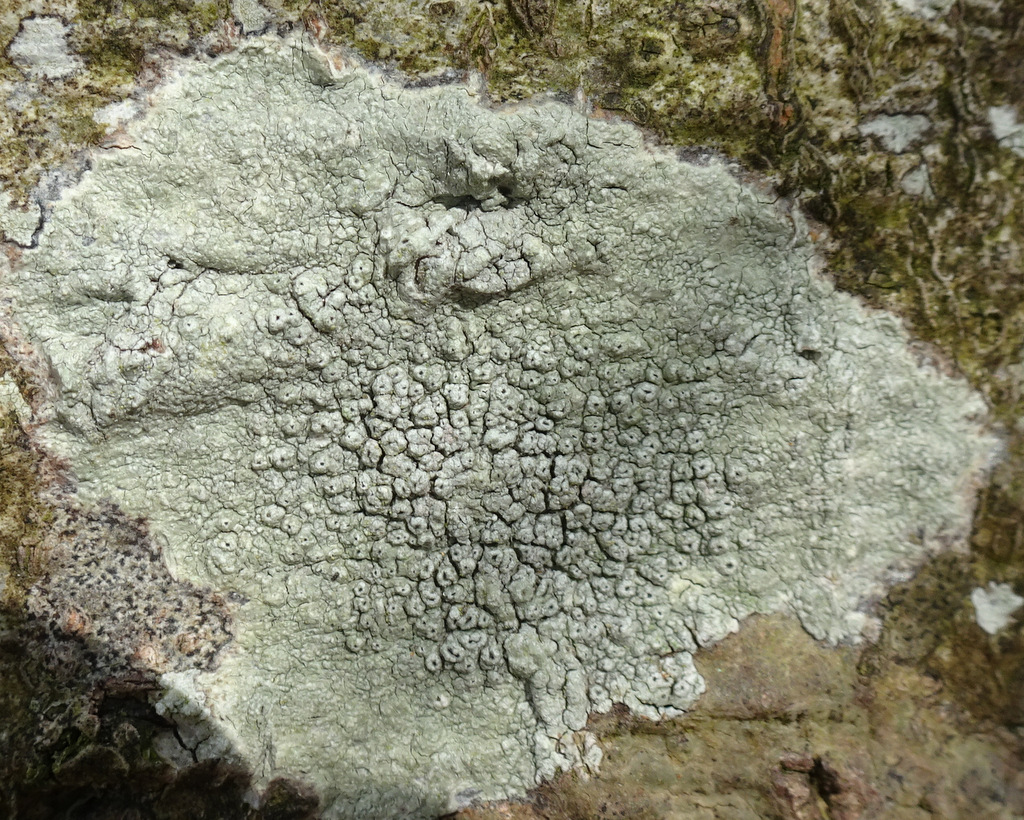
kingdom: Fungi
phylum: Ascomycota
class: Lecanoromycetes
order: Pertusariales
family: Pertusariaceae
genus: Pertusaria
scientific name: Pertusaria hymenea
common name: åben prikvortelav
